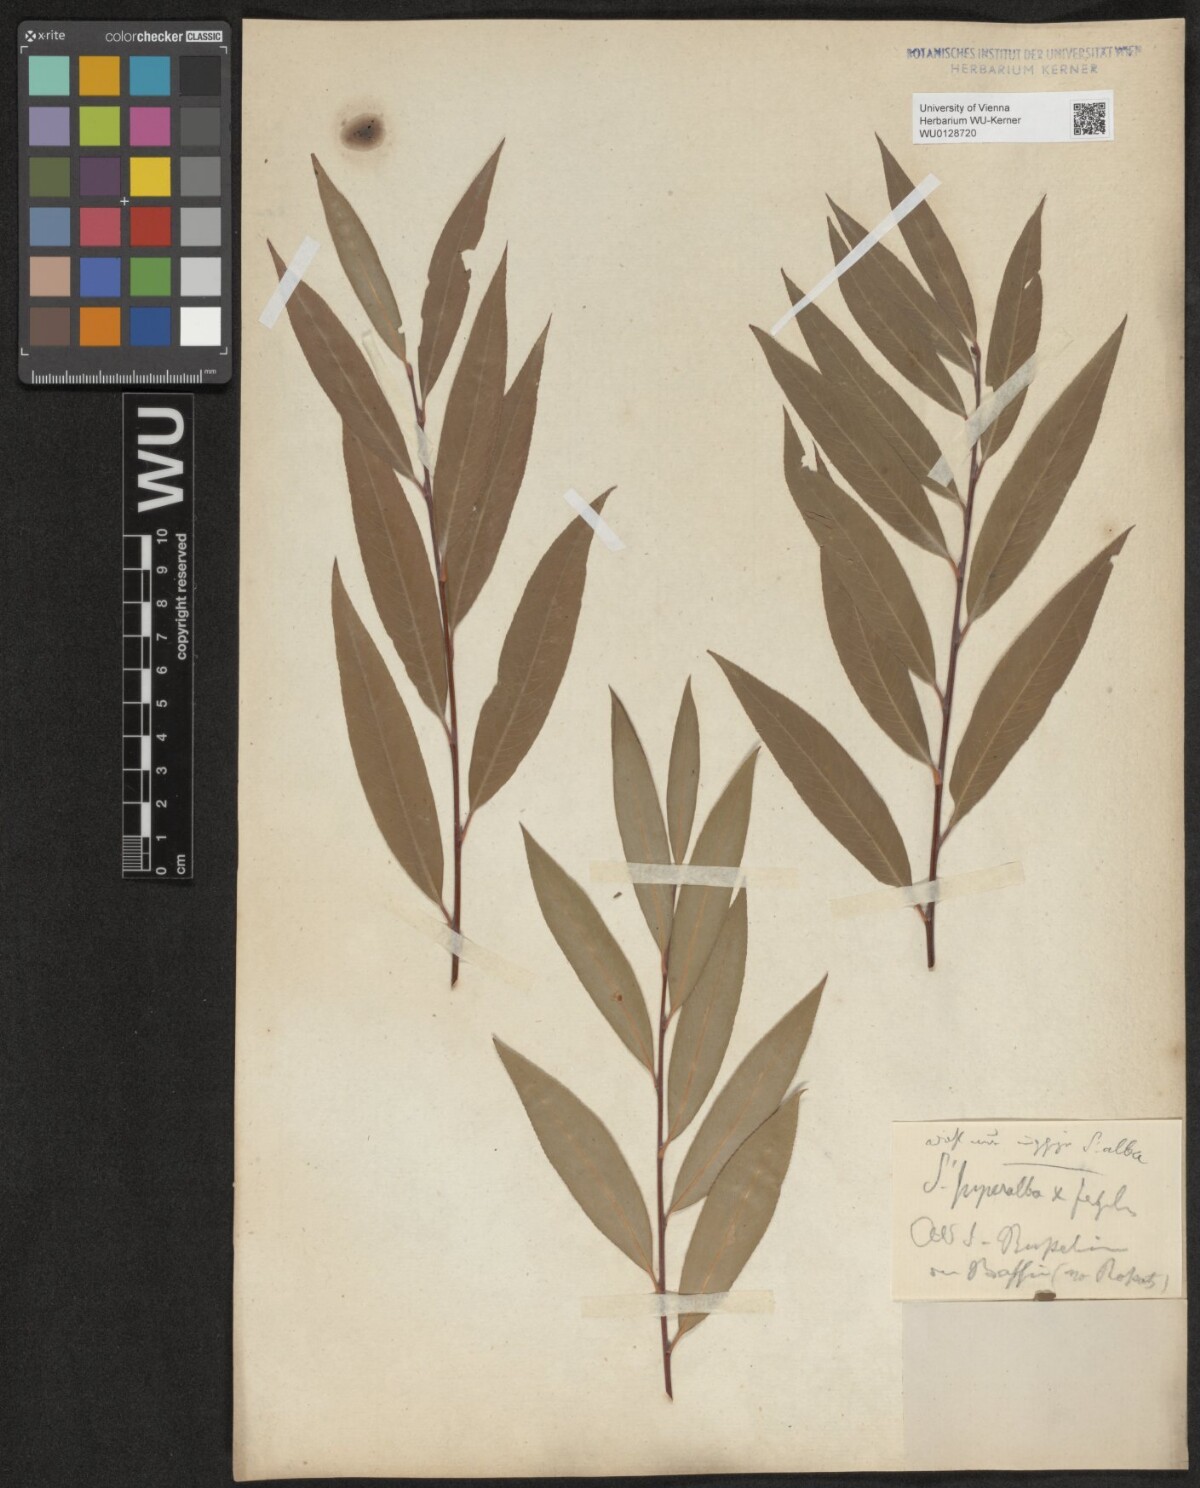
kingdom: Plantae
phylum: Tracheophyta
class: Magnoliopsida
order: Malpighiales
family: Salicaceae
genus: Salix
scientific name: Salix alba
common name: White willow
